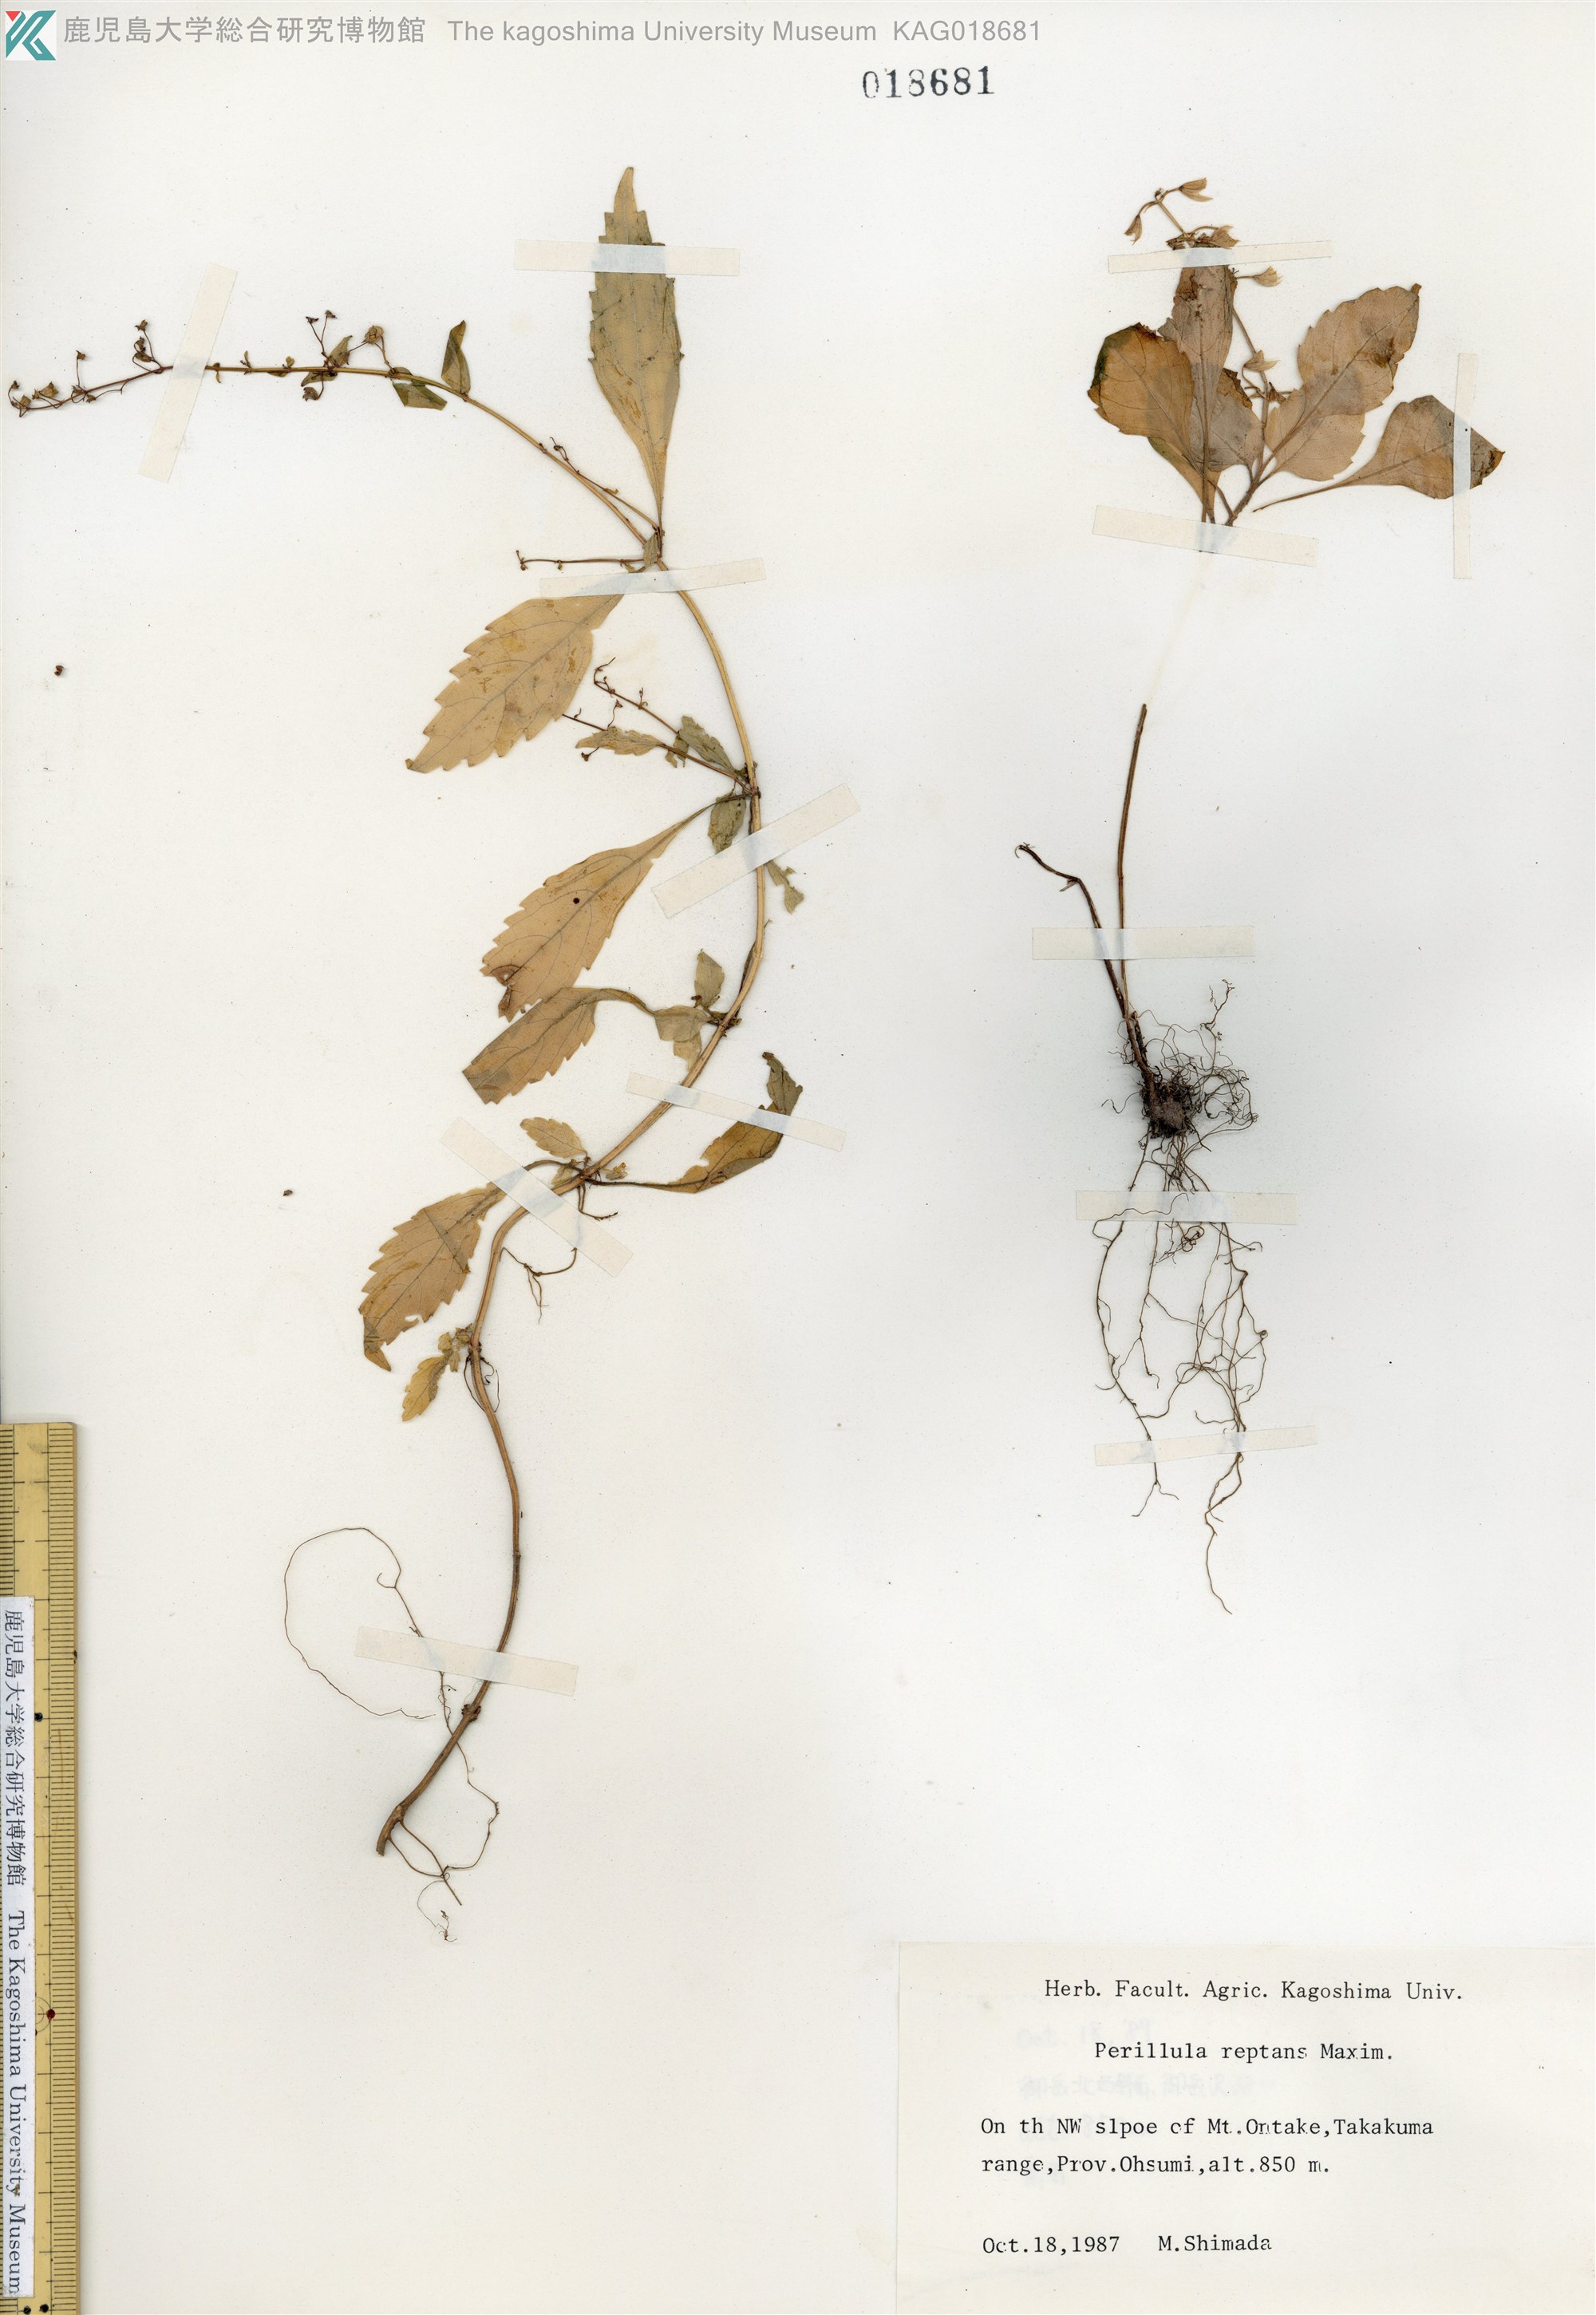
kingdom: Plantae
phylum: Tracheophyta
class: Magnoliopsida
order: Lamiales
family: Lamiaceae
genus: Perillula
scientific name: Perillula reptans
